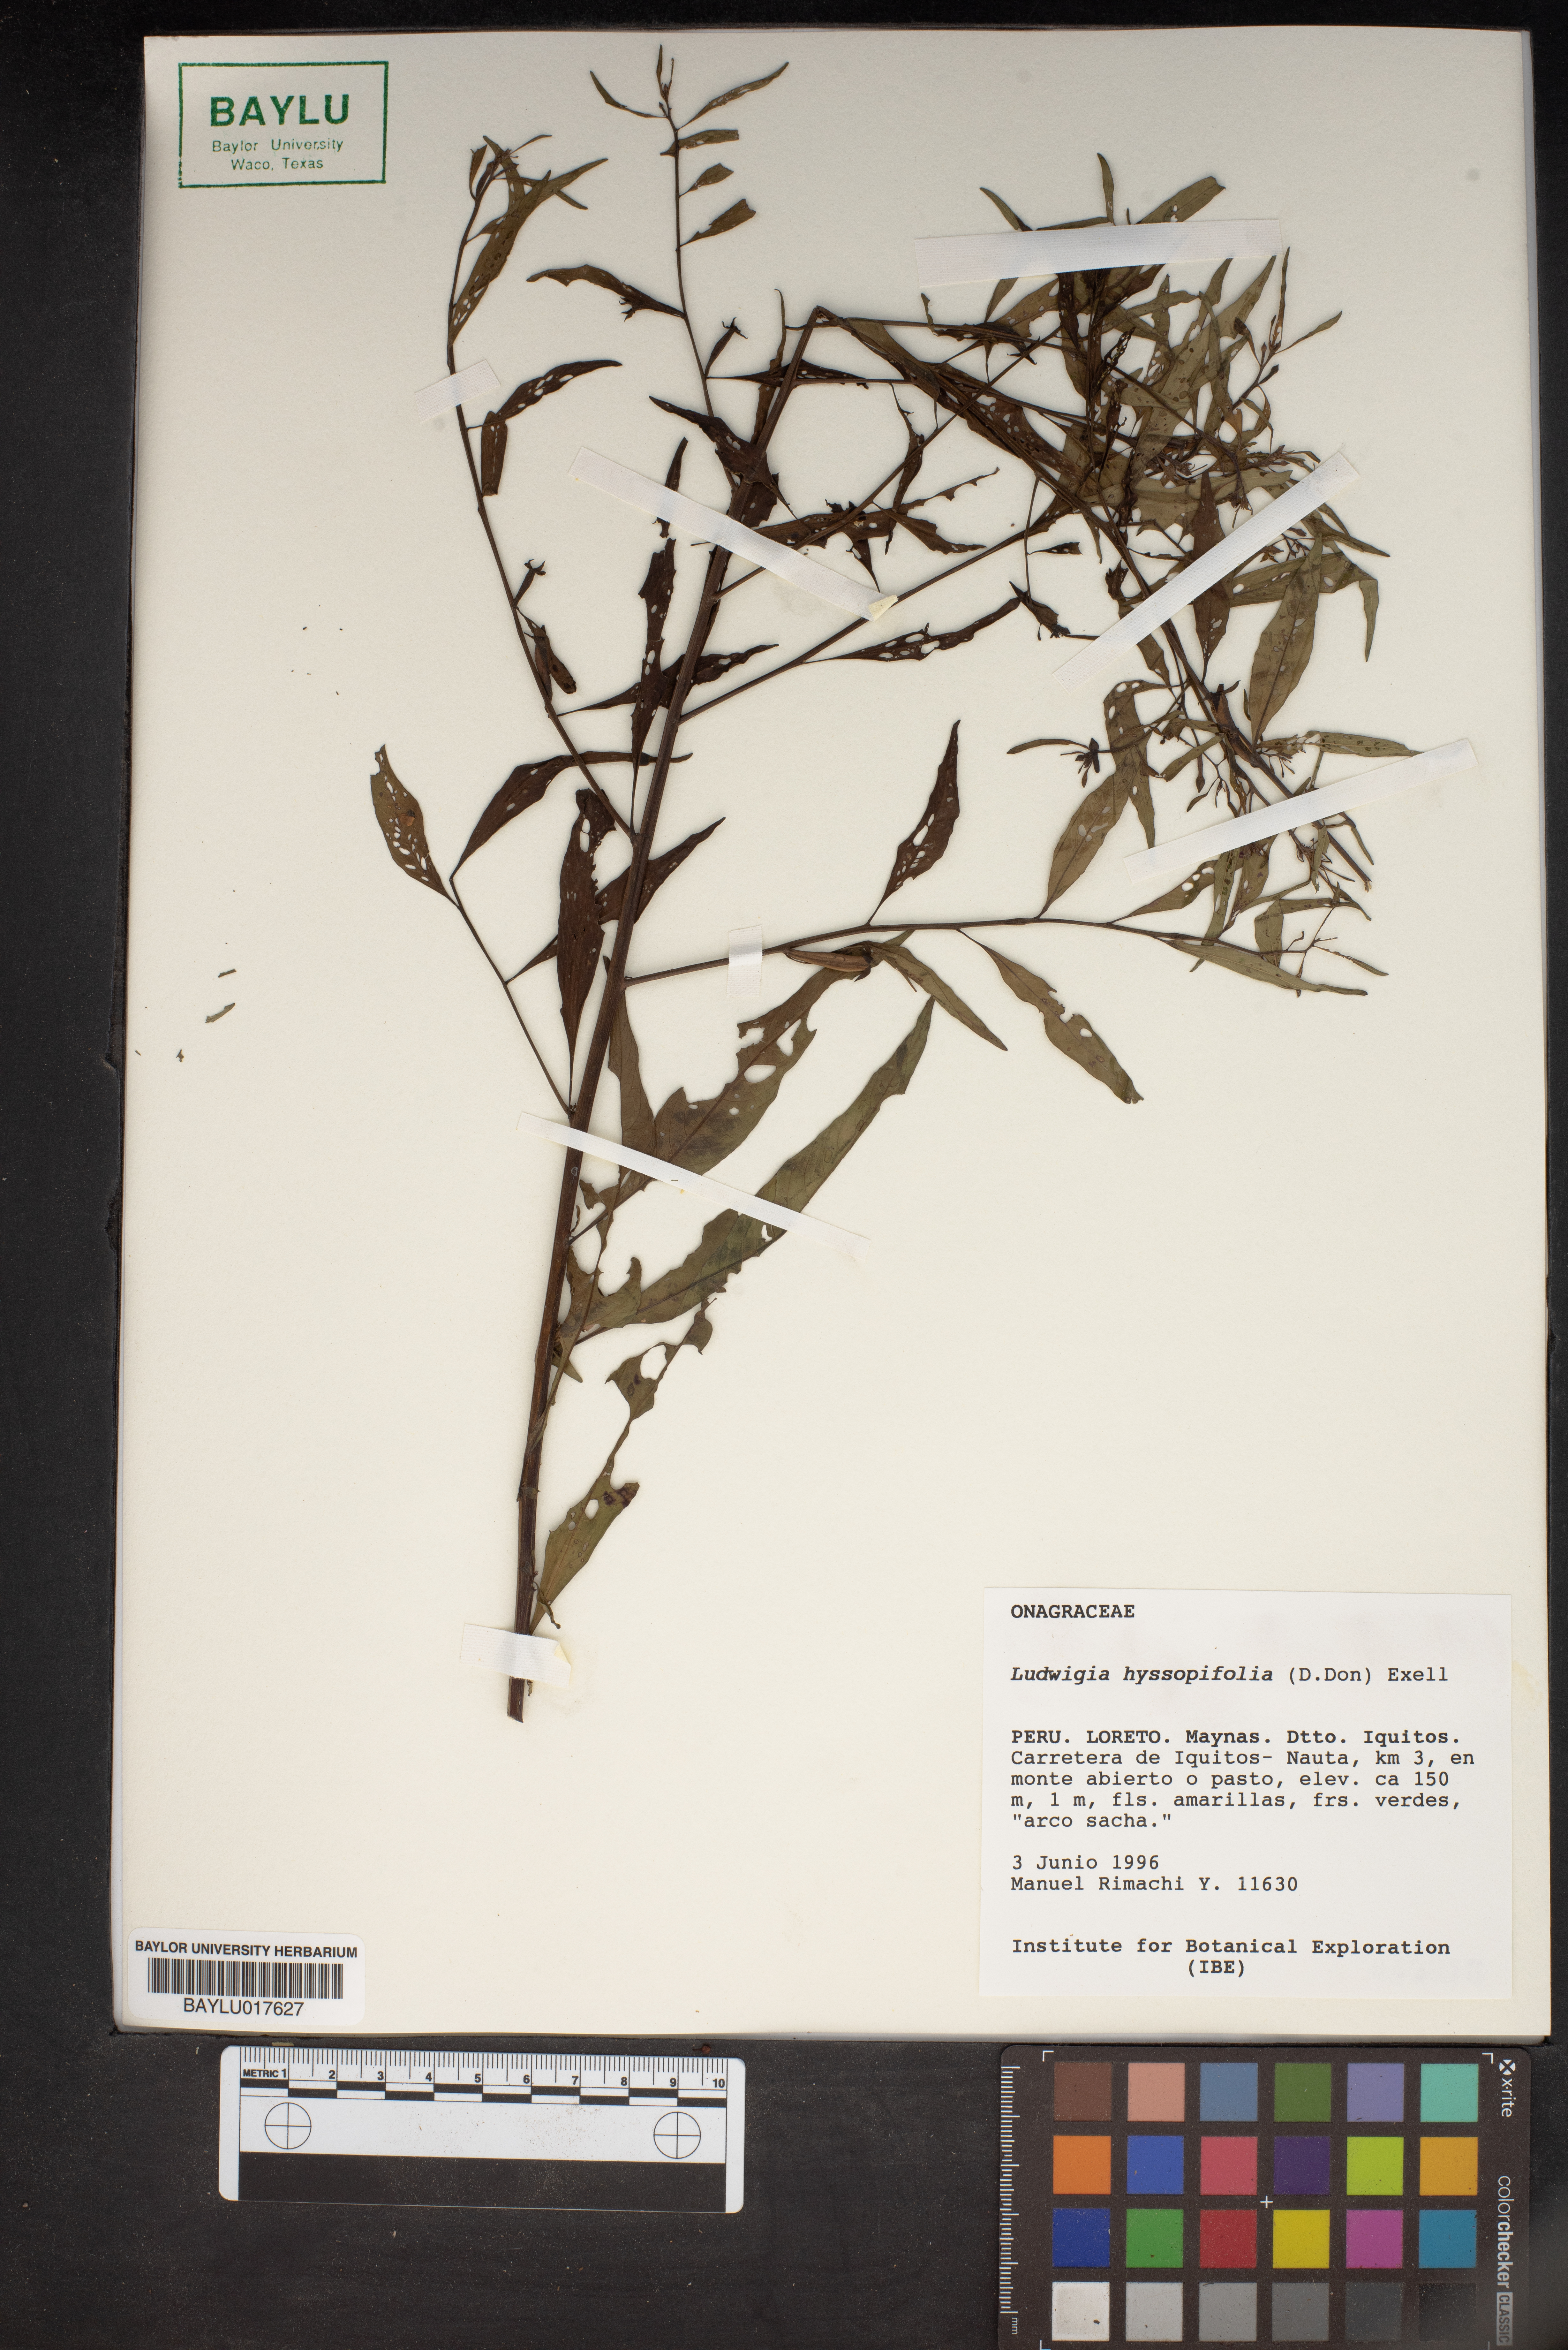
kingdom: Plantae
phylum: Tracheophyta
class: Magnoliopsida
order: Myrtales
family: Onagraceae
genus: Ludwigia
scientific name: Ludwigia hyssopifolia
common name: Linear leaf water primrose
